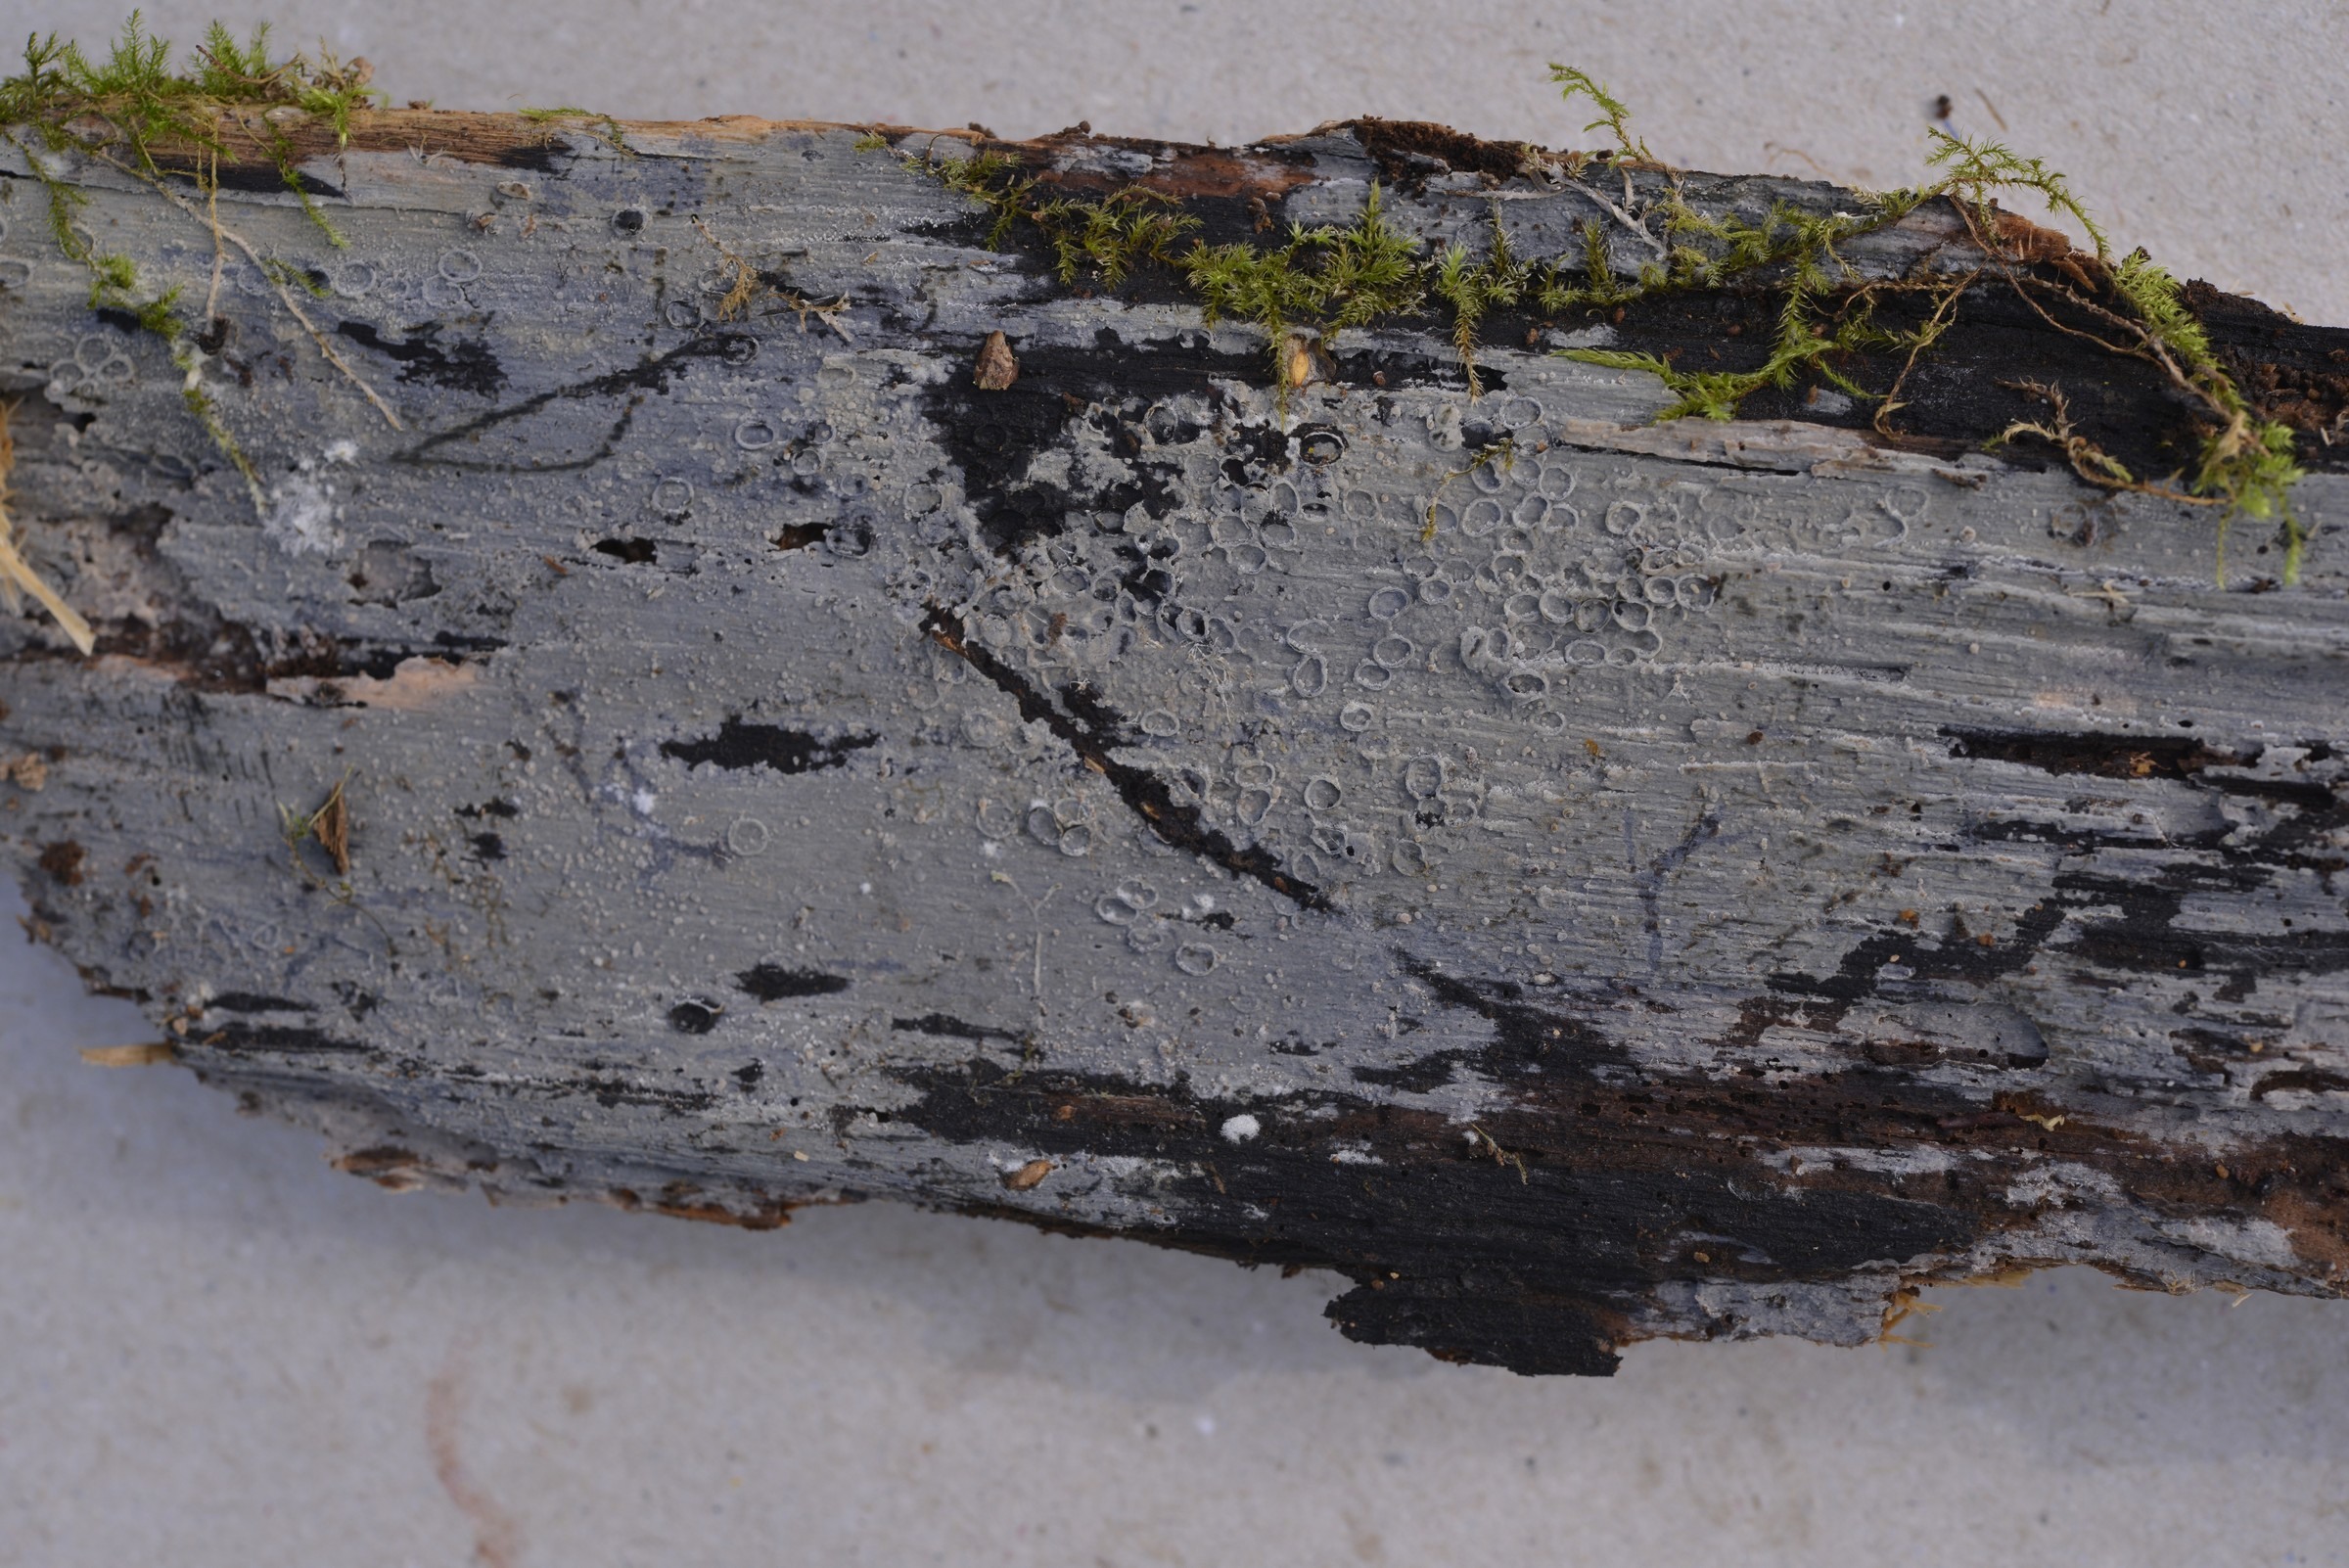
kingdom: Fungi
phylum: Basidiomycota
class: Agaricomycetes
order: Auriculariales
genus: Basidiodendron
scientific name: Basidiodendron caesiocinereum
